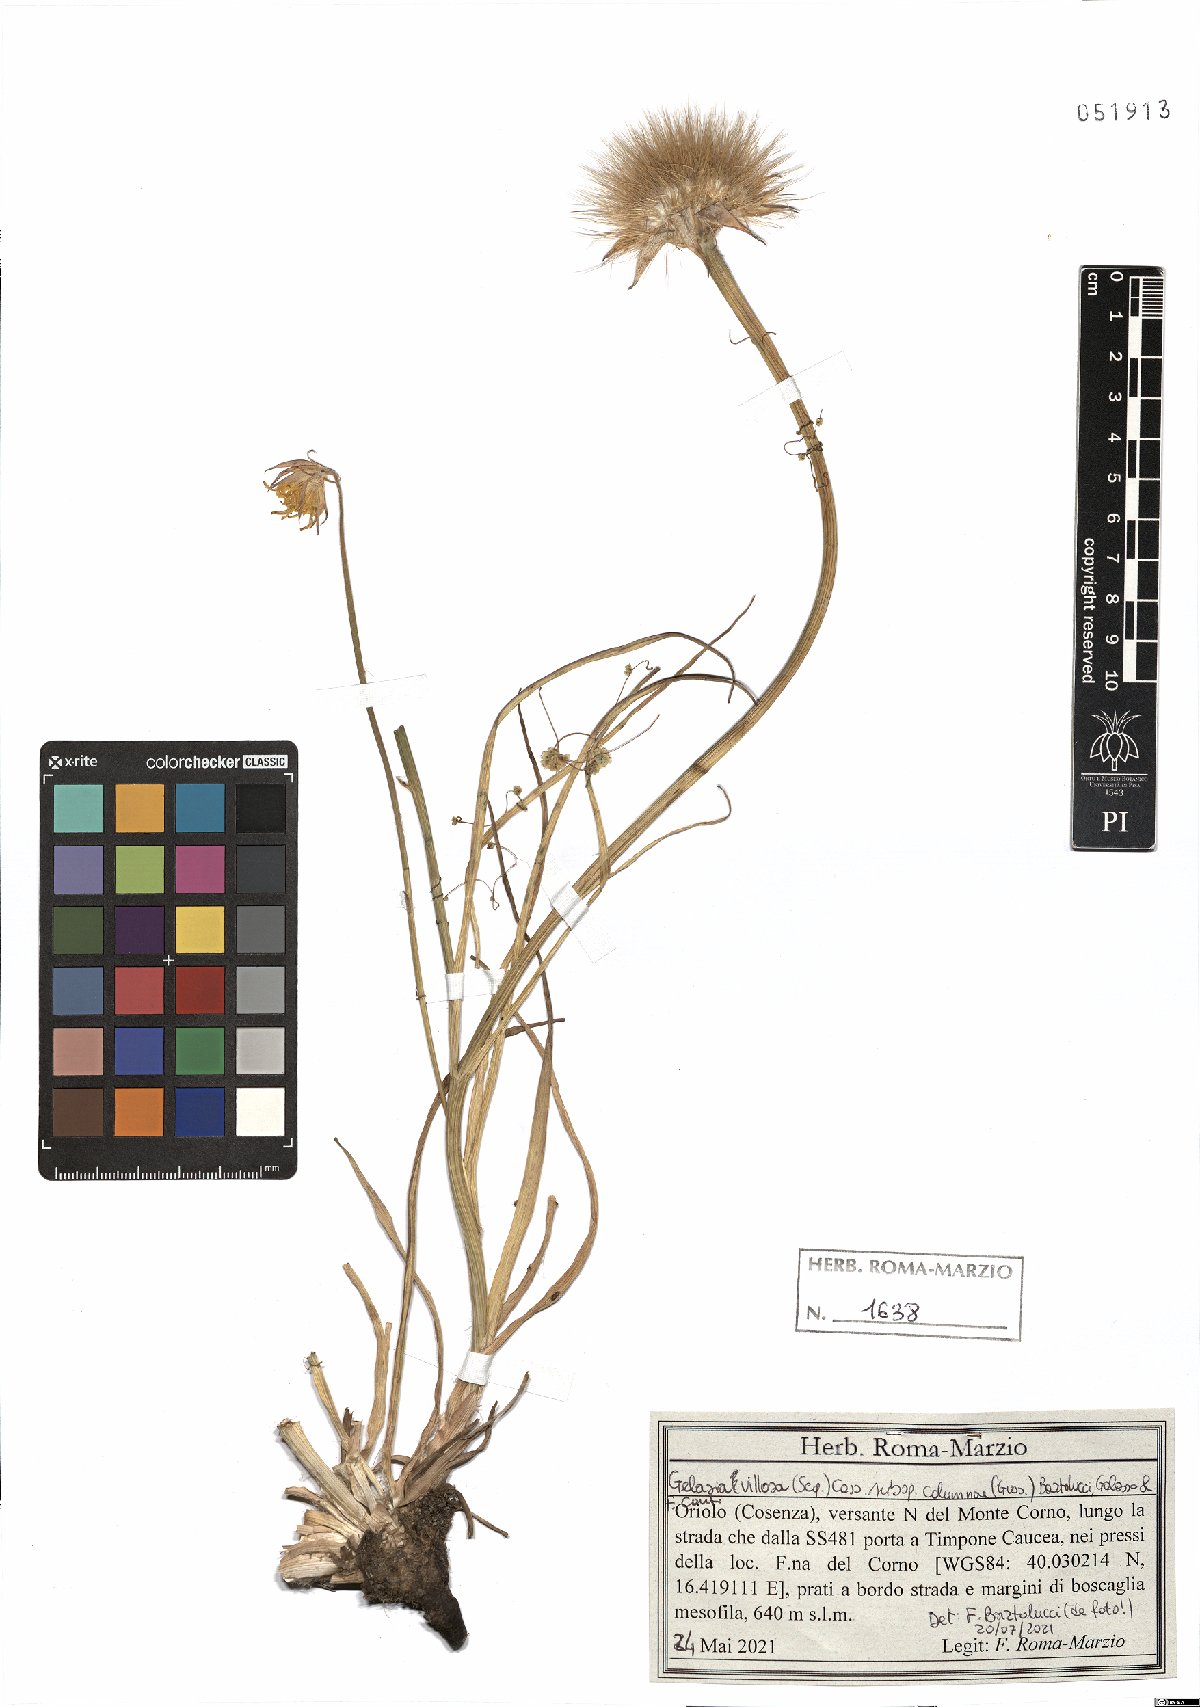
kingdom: Plantae
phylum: Tracheophyta
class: Magnoliopsida
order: Asterales
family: Asteraceae
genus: Gelasia
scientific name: Gelasia villosa
